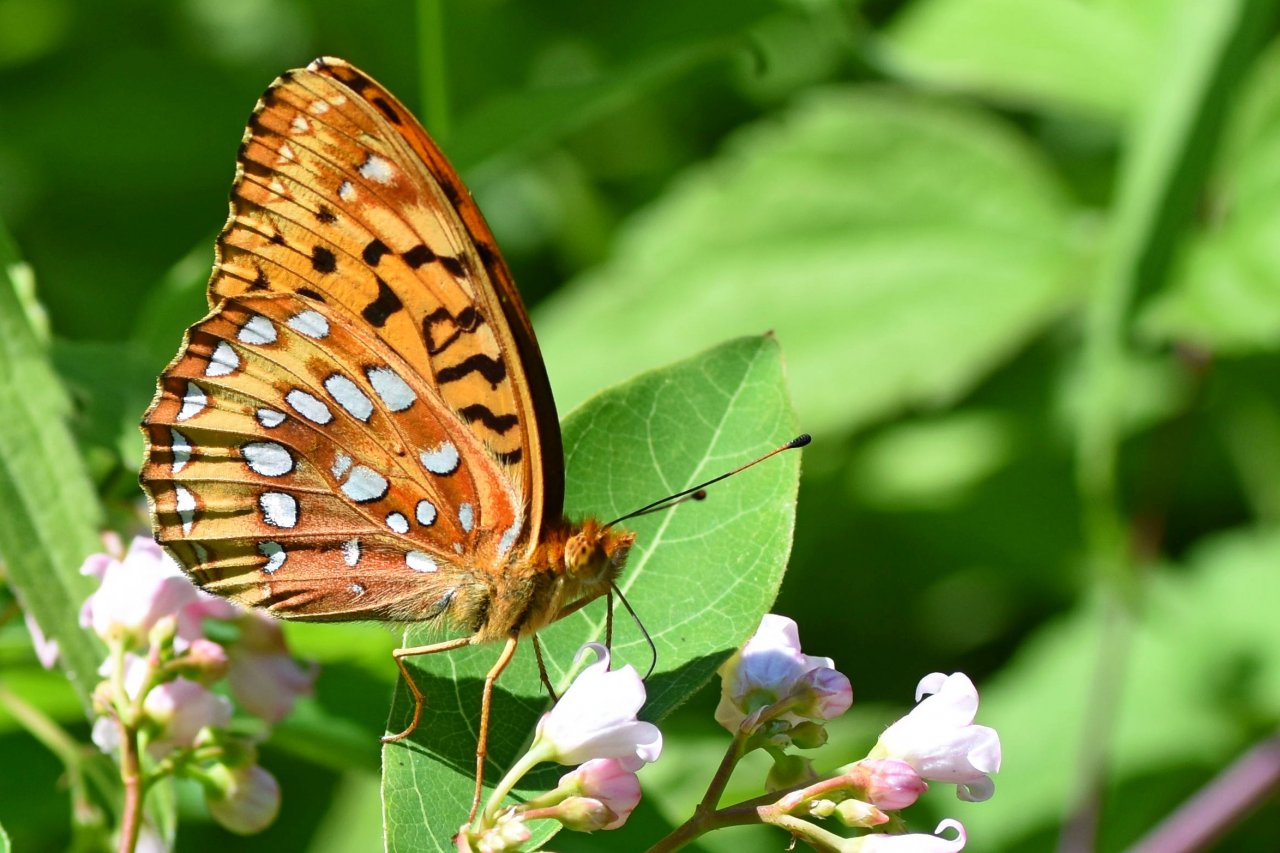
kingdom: Animalia
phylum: Arthropoda
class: Insecta
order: Lepidoptera
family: Nymphalidae
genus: Speyeria
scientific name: Speyeria cybele
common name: Great Spangled Fritillary
